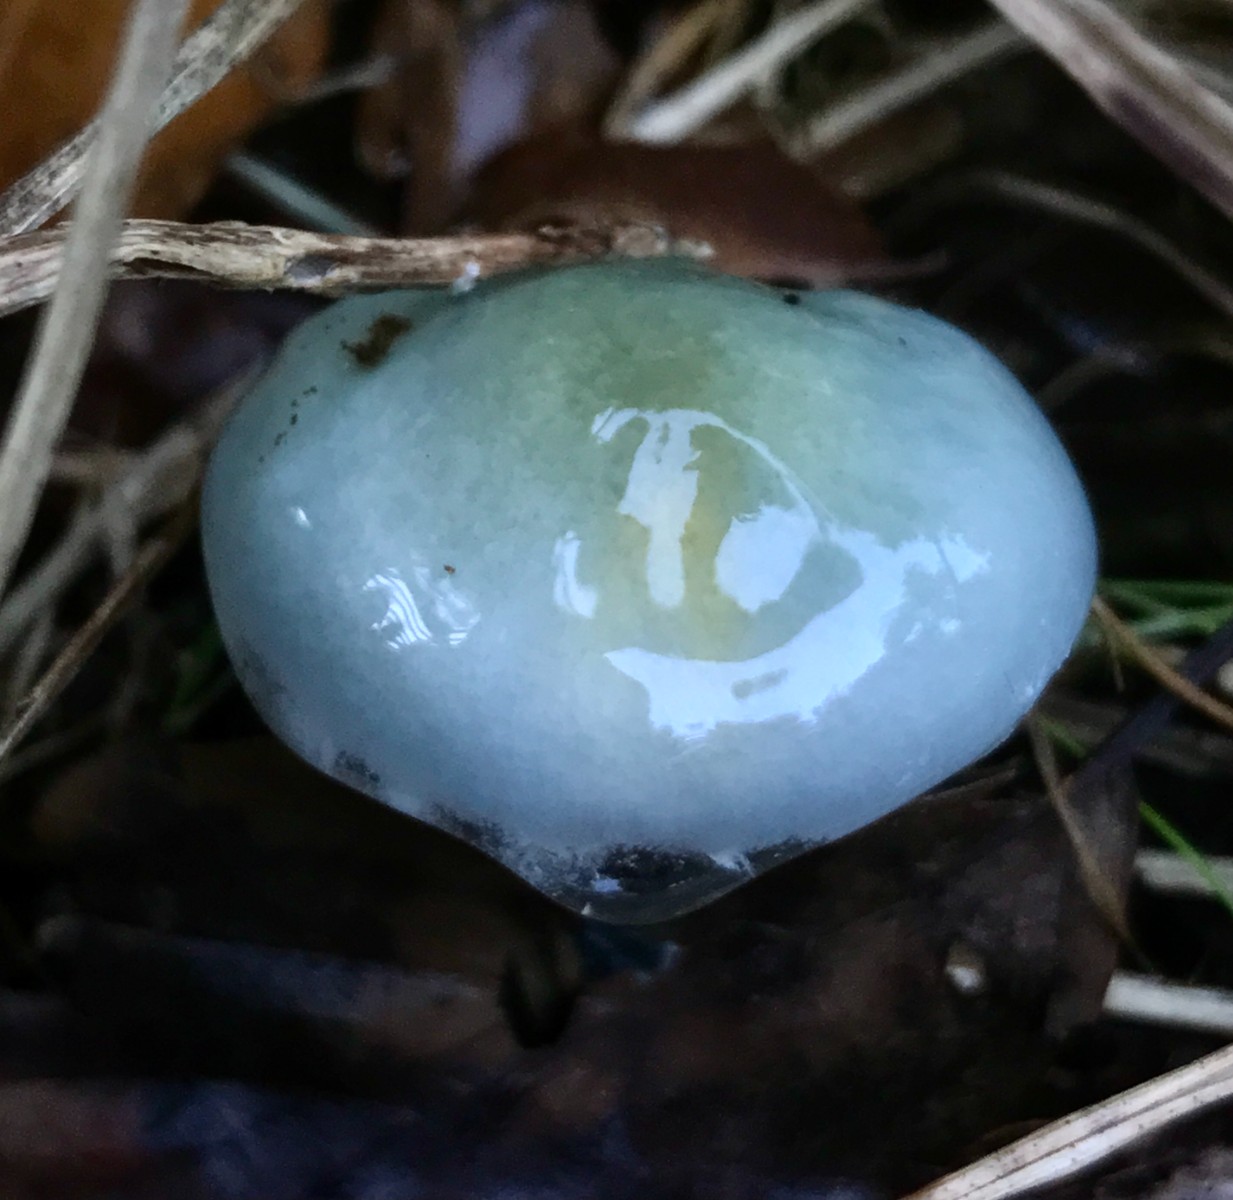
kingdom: Fungi
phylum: Basidiomycota
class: Agaricomycetes
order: Agaricales
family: Strophariaceae
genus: Stropharia
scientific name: Stropharia cyanea
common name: blågrøn bredblad
